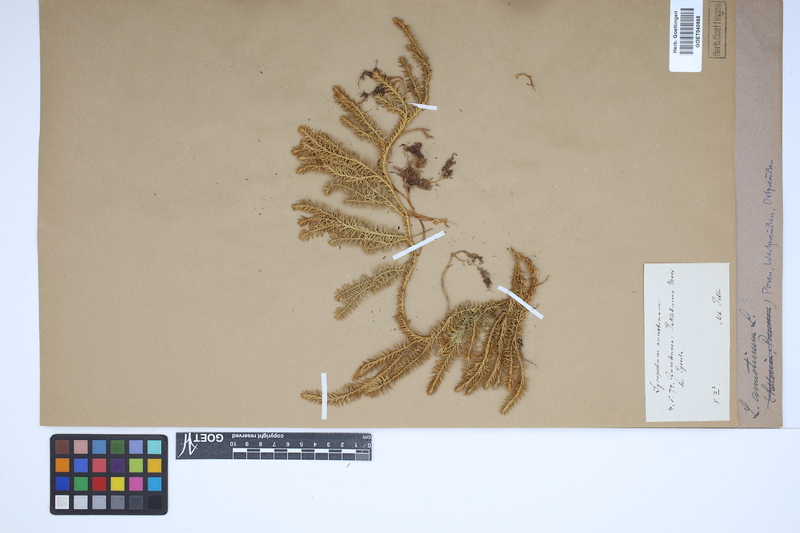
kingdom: Plantae
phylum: Tracheophyta
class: Lycopodiopsida
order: Lycopodiales
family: Lycopodiaceae
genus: Spinulum
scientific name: Spinulum annotinum
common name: Interrupted club-moss
